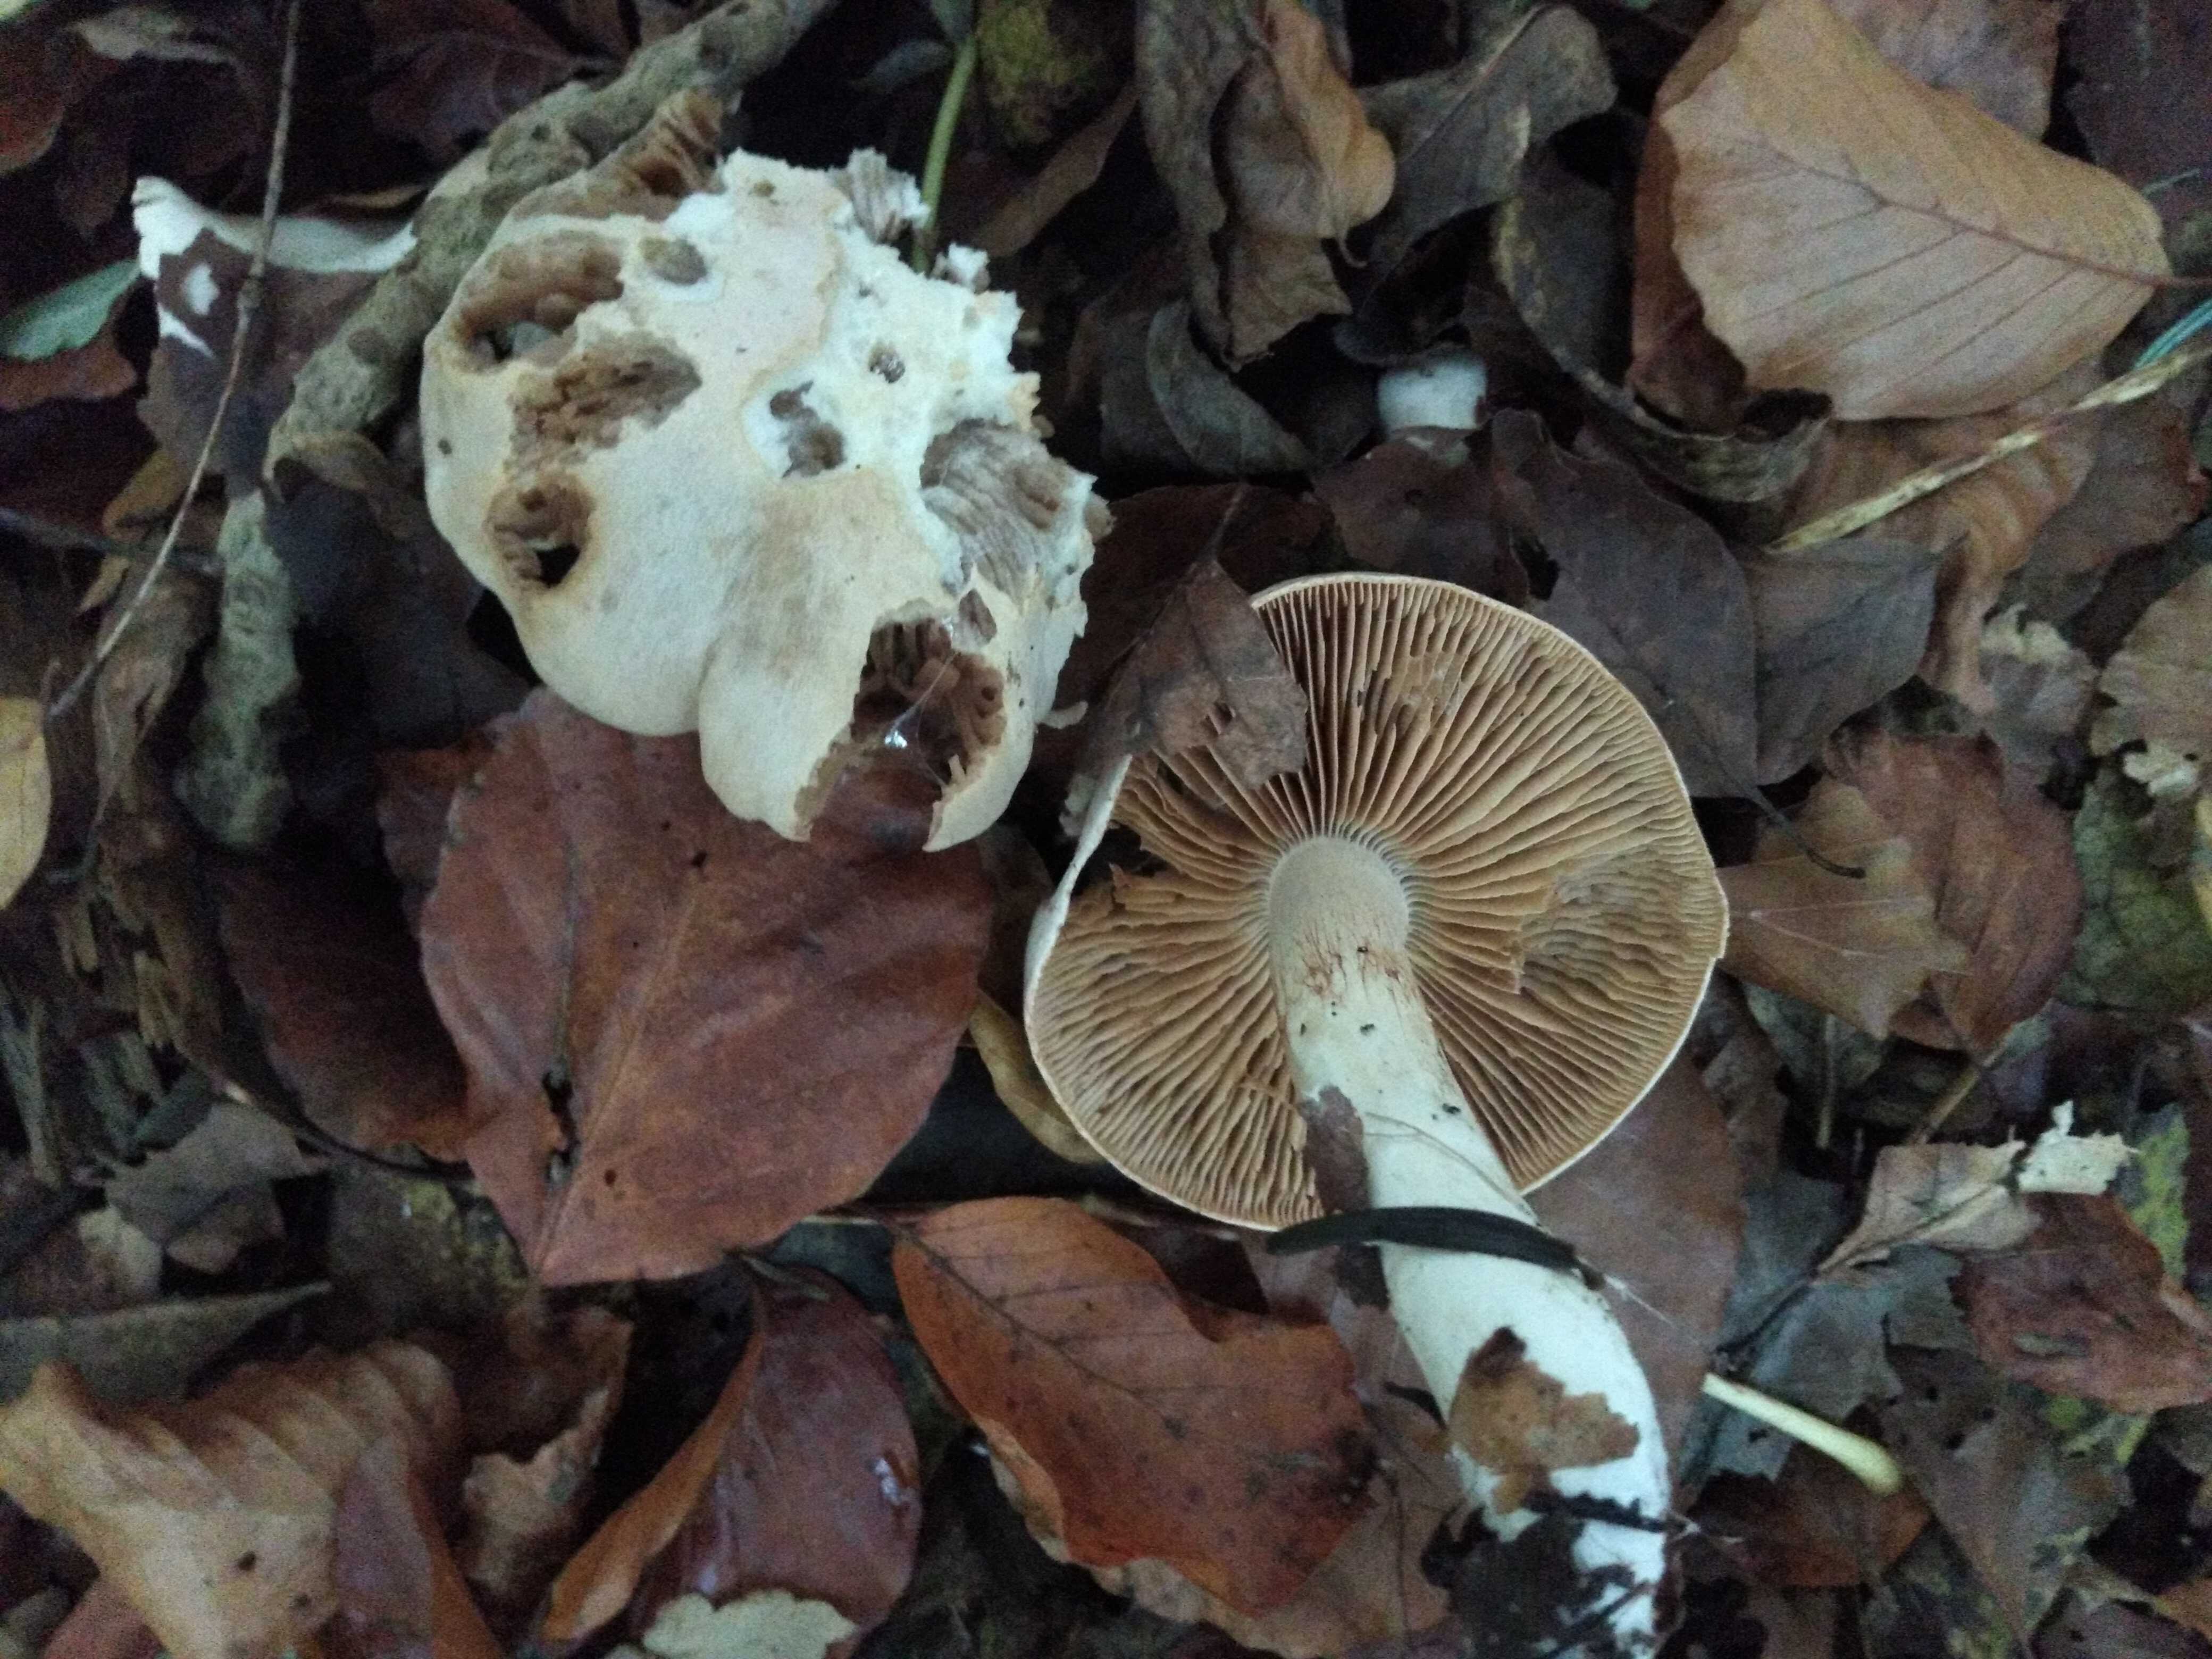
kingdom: Fungi
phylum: Basidiomycota
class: Agaricomycetes
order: Agaricales
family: Cortinariaceae
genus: Cortinarius
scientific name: Cortinarius turgidus
